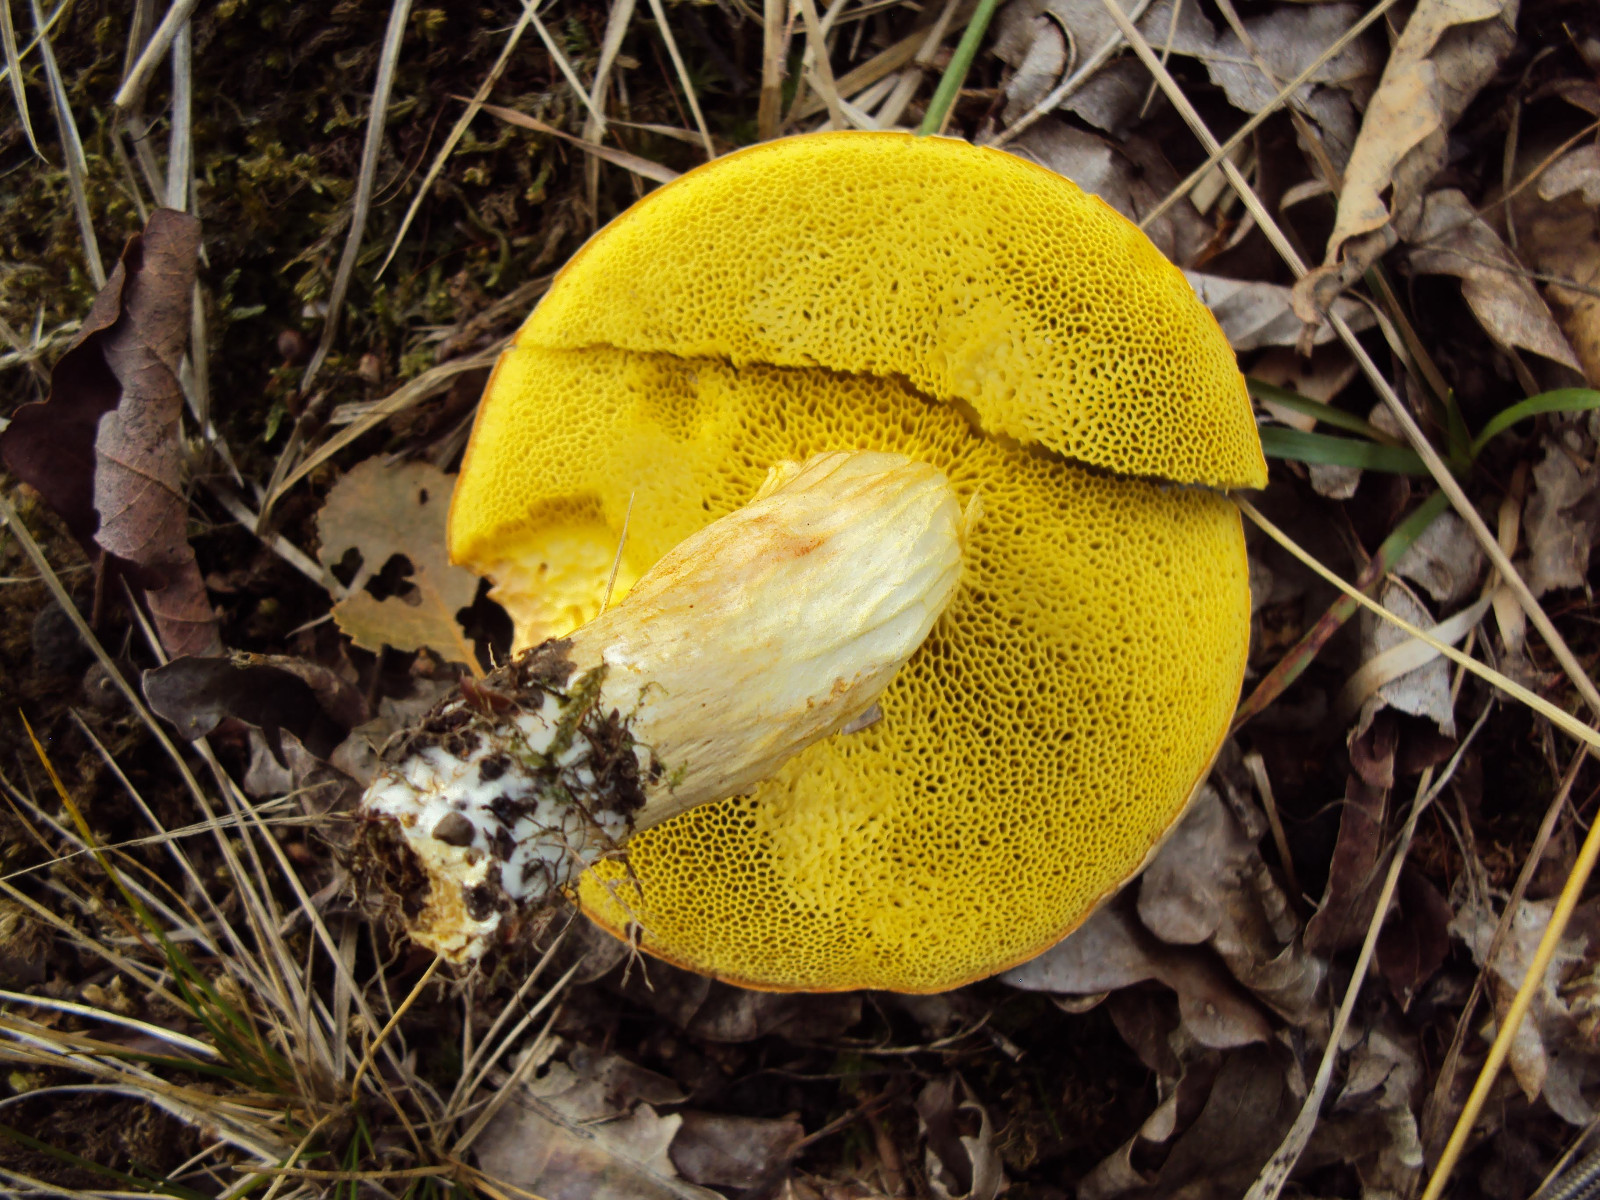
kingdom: Fungi
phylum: Basidiomycota
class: Agaricomycetes
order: Boletales
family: Boletaceae
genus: Xerocomus
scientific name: Xerocomus subtomentosus
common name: filtet rørhat
